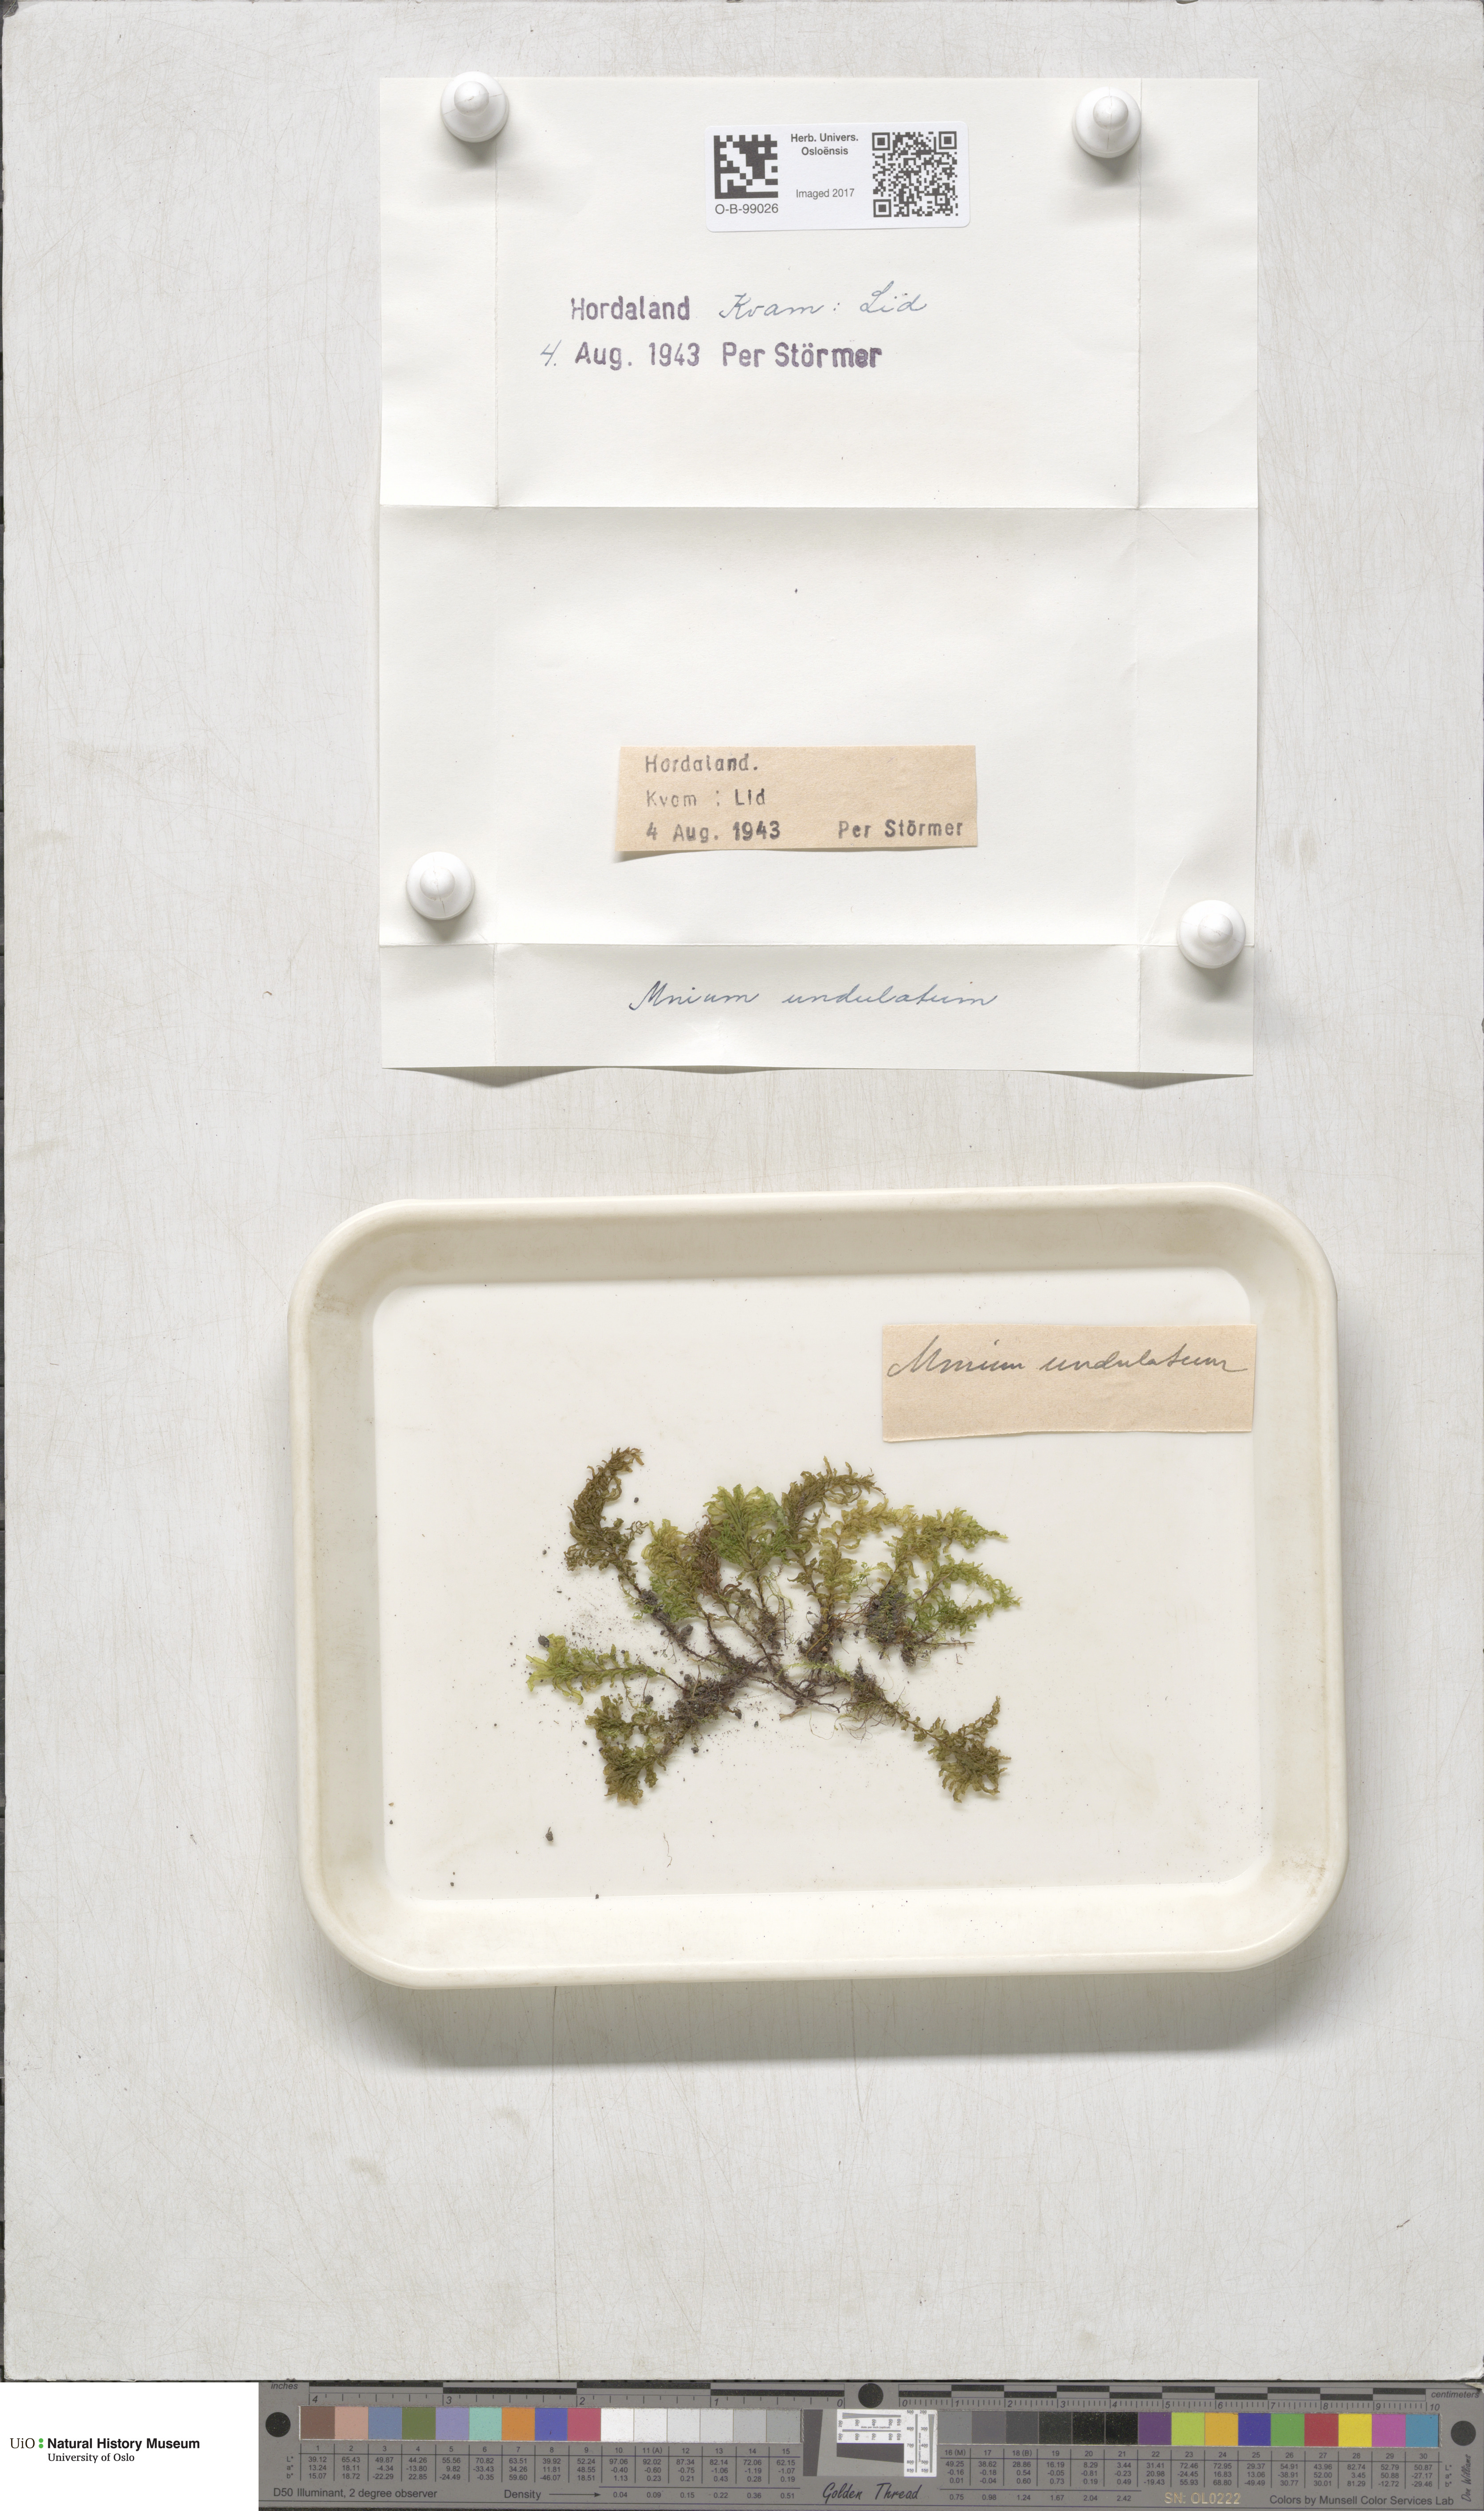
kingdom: Plantae
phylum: Bryophyta
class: Bryopsida
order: Bryales
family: Mniaceae
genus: Plagiomnium
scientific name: Plagiomnium undulatum
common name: Hart's-tongue thyme-moss
